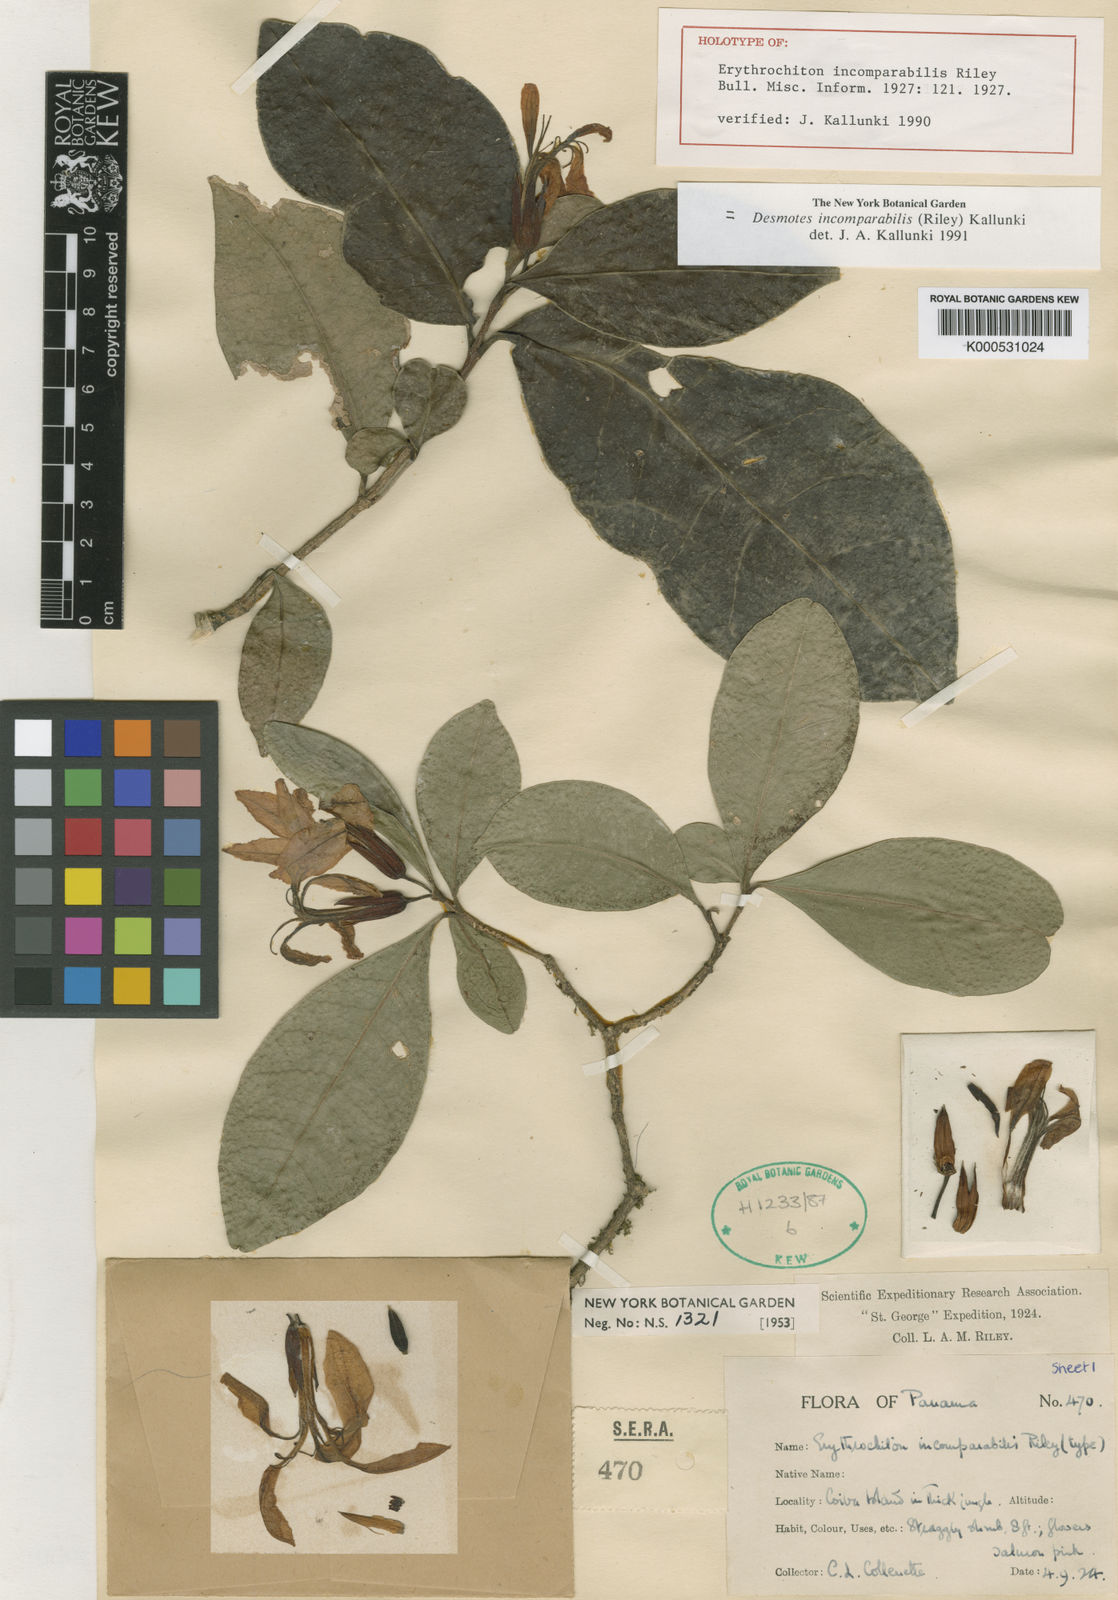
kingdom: Plantae
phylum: Tracheophyta
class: Magnoliopsida
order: Sapindales
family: Rutaceae
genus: Desmotes
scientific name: Desmotes incomparabilis
